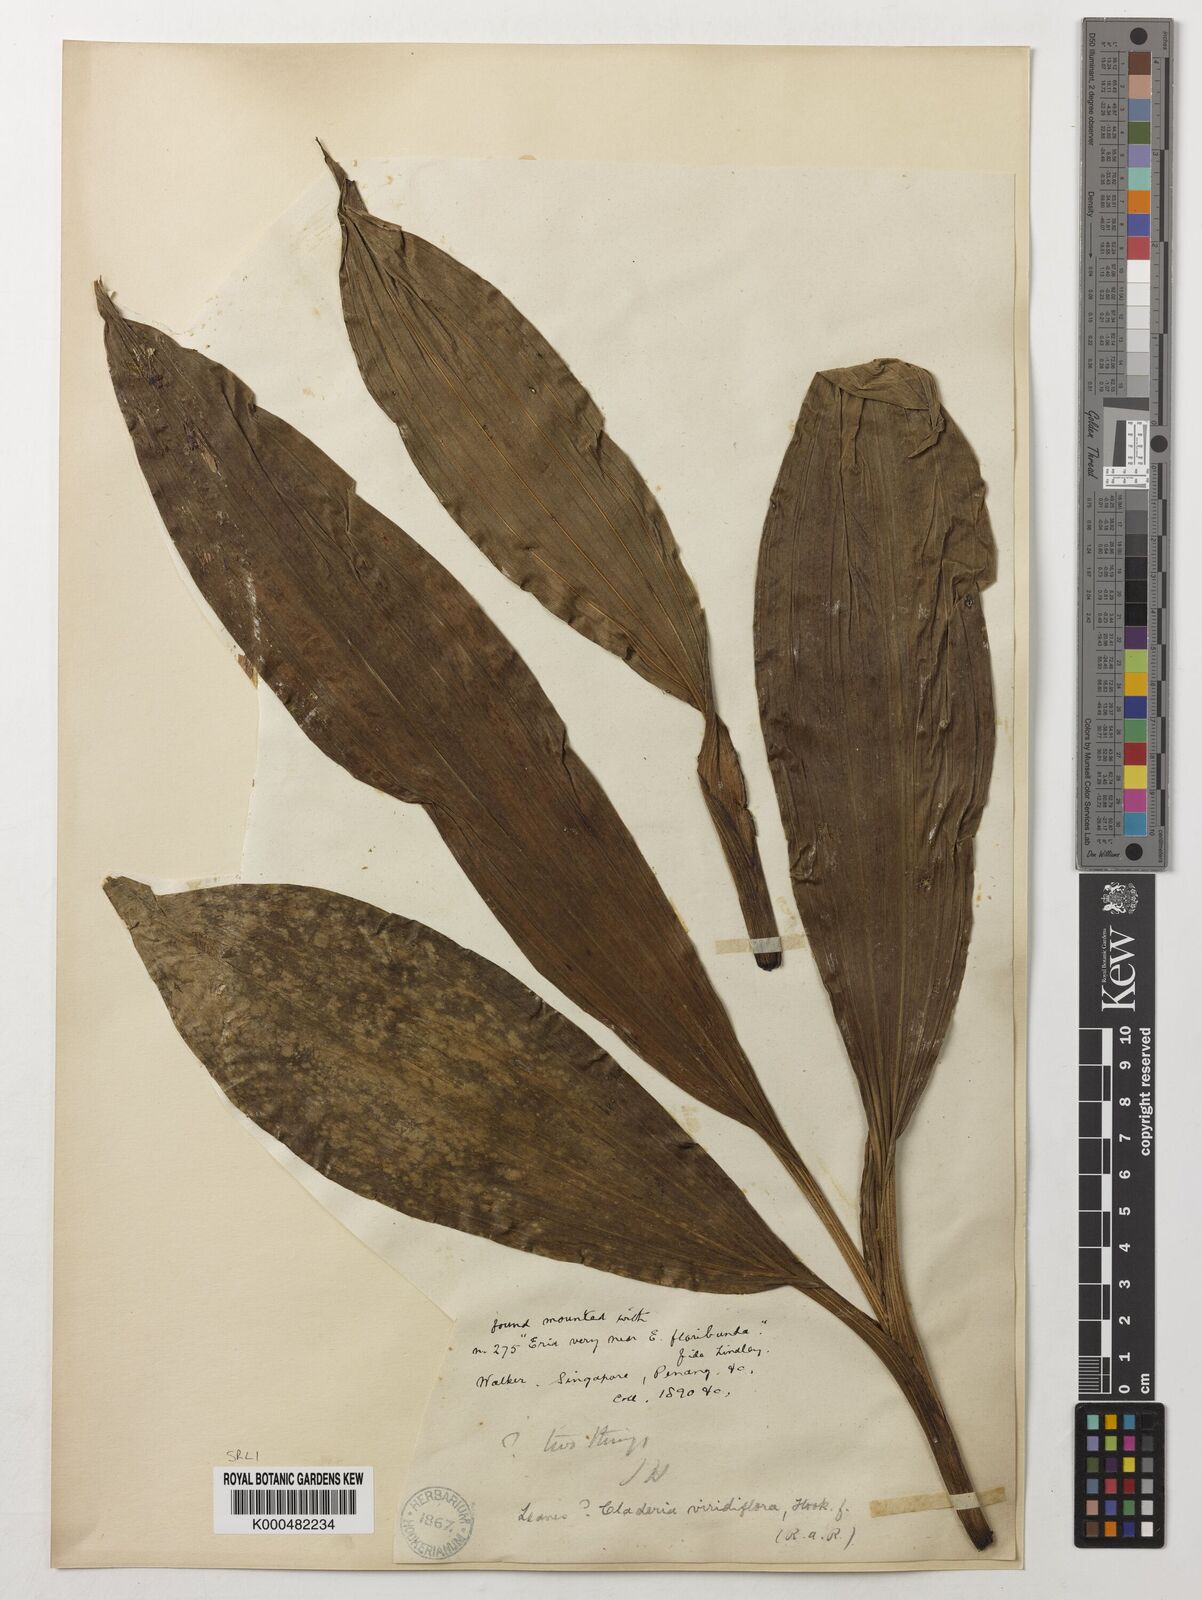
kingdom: Plantae
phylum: Tracheophyta
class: Liliopsida
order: Asparagales
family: Orchidaceae
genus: Claderia
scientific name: Claderia
